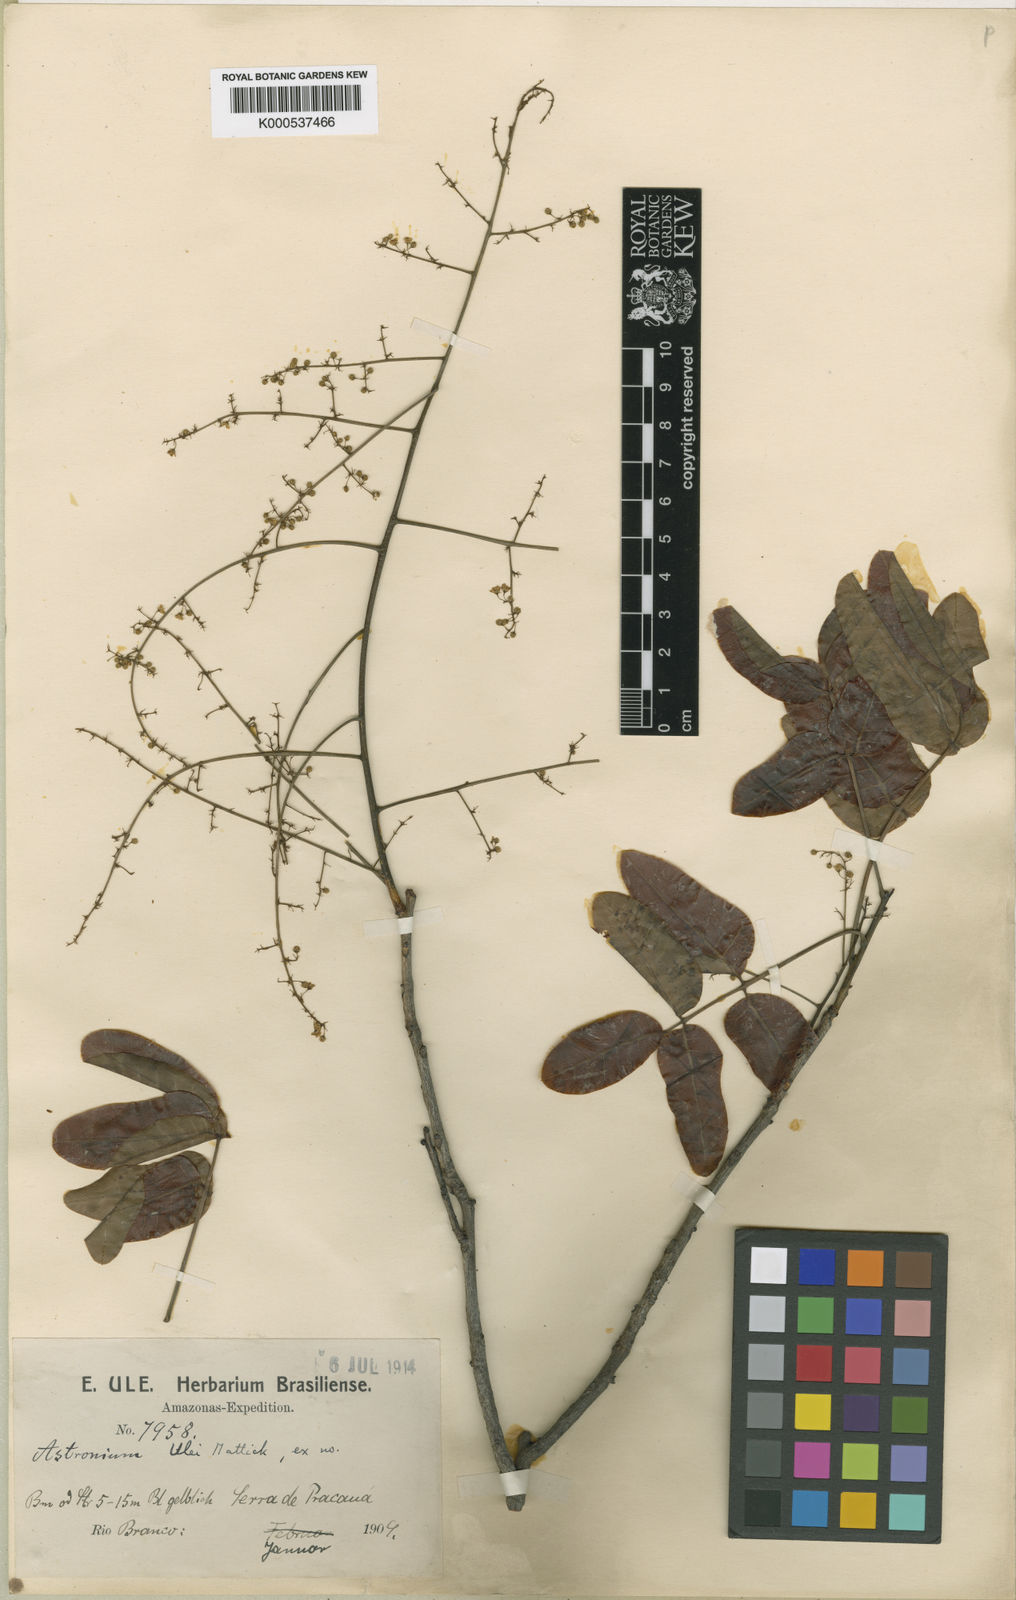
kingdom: Plantae
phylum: Tracheophyta
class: Magnoliopsida
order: Sapindales
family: Anacardiaceae
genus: Astronium
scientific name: Astronium ulei
